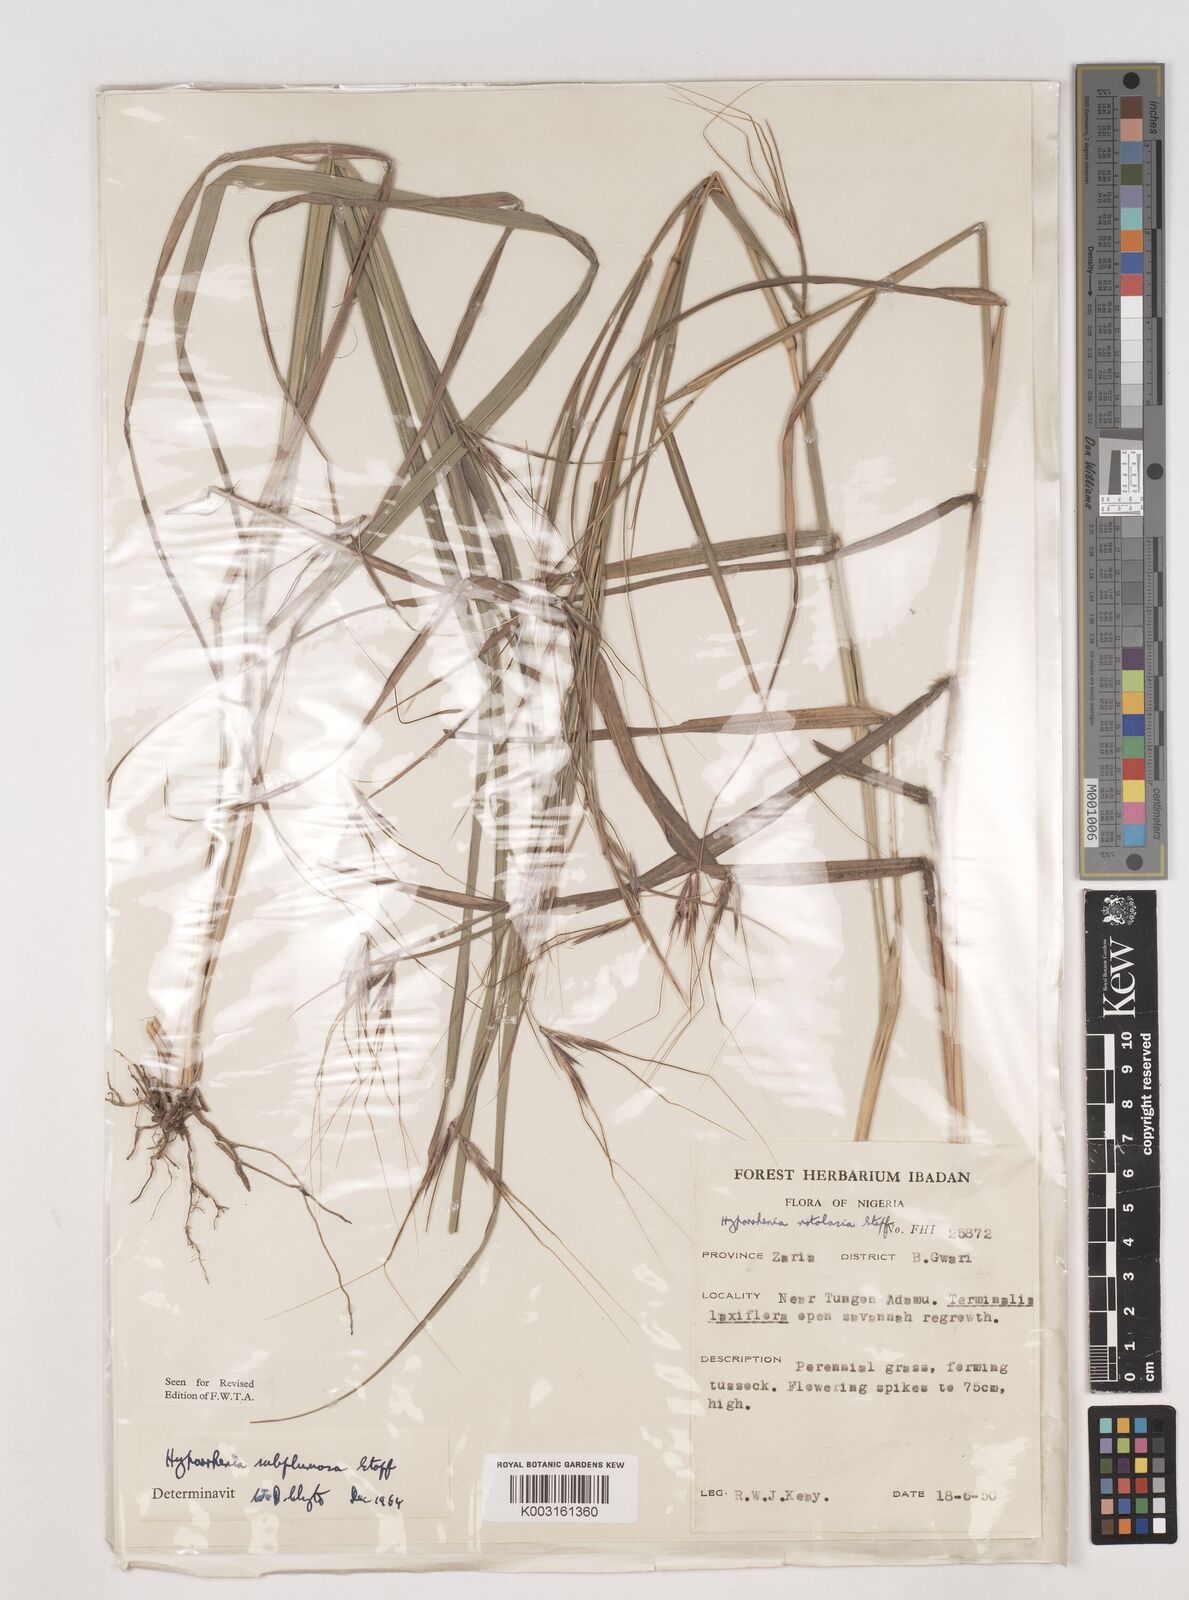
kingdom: Plantae
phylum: Tracheophyta
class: Liliopsida
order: Poales
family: Poaceae
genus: Hyparrhenia
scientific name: Hyparrhenia subplumosa
